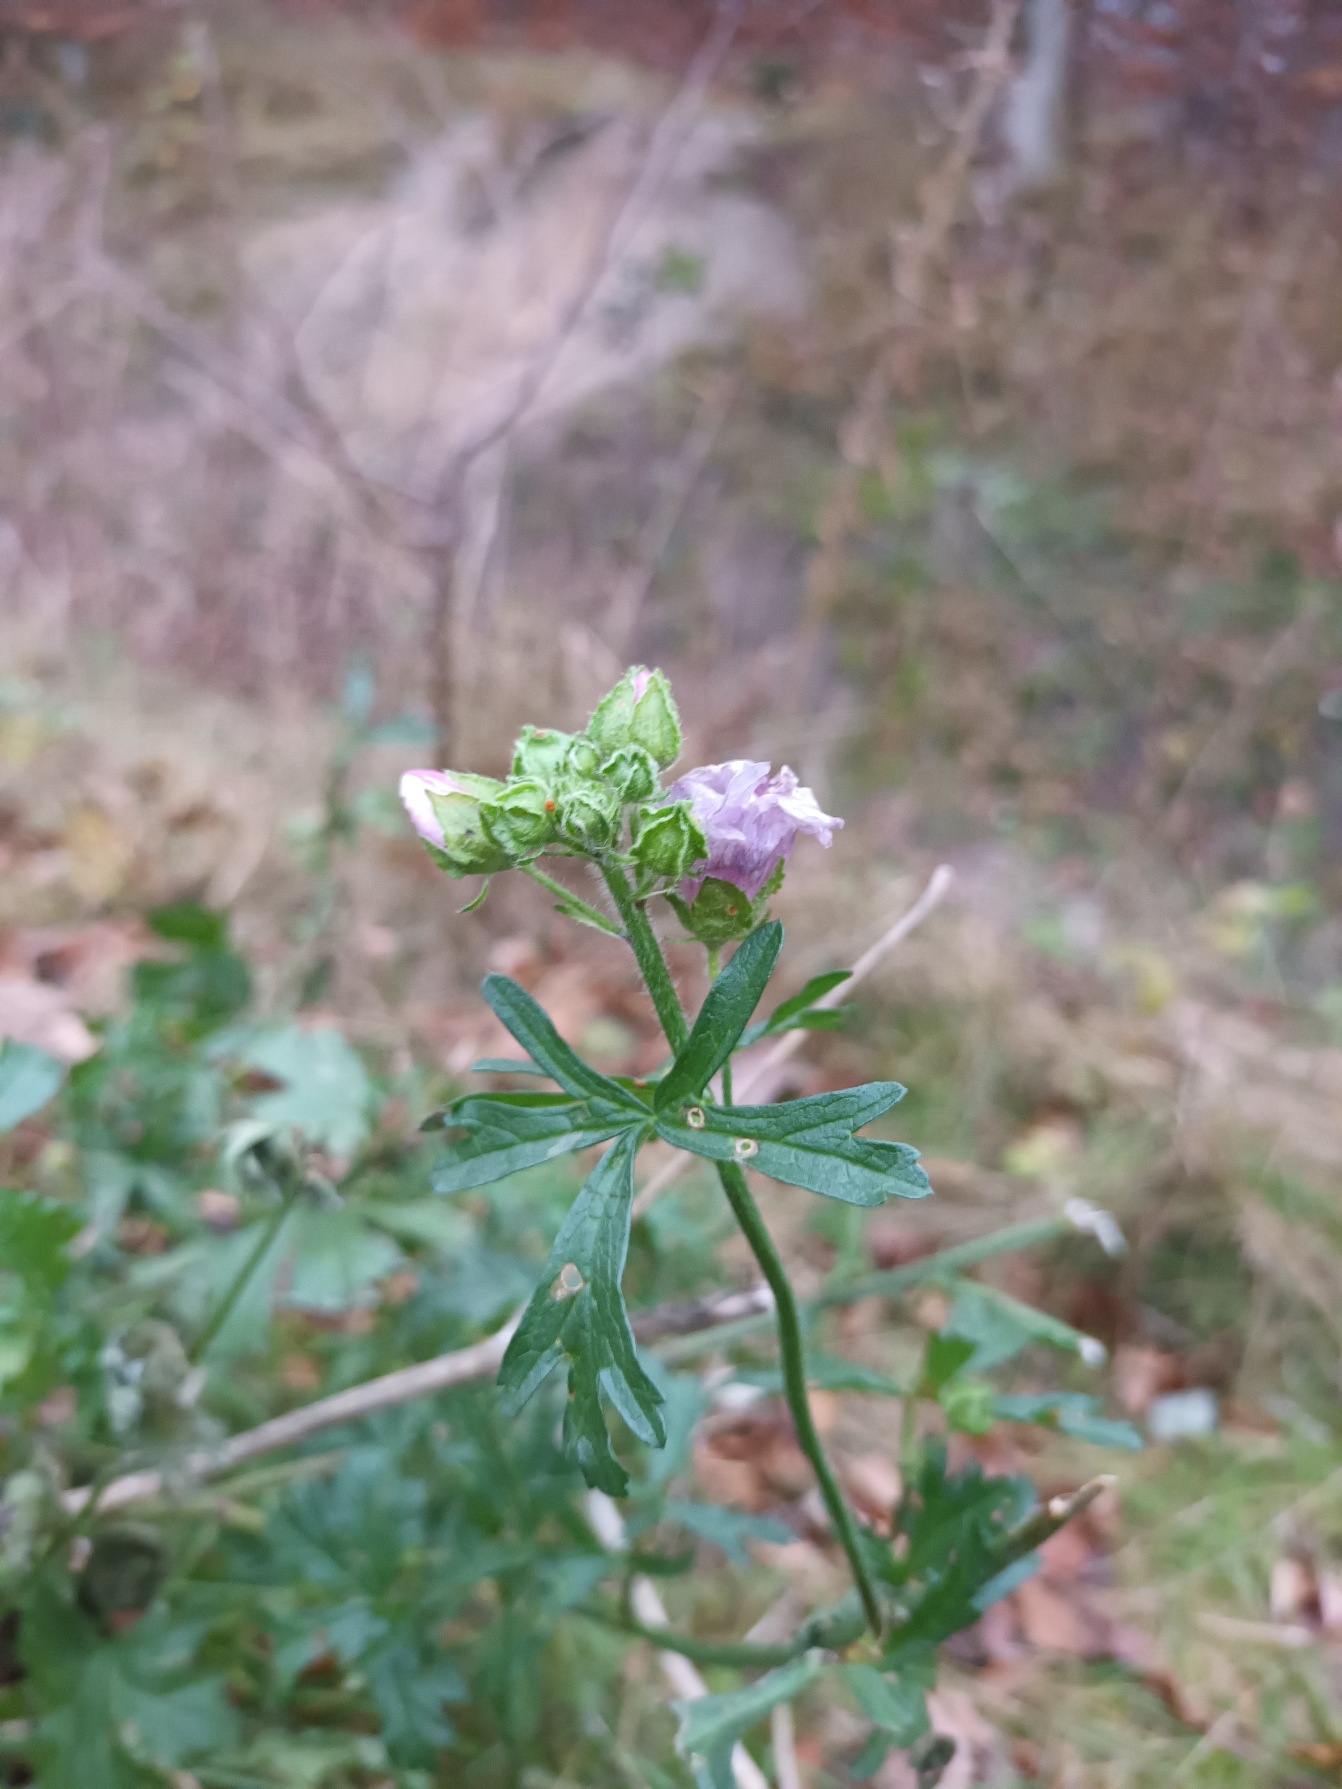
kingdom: Plantae
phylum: Tracheophyta
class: Magnoliopsida
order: Malvales
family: Malvaceae
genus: Malva
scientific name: Malva moschata
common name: Moskus-katost
